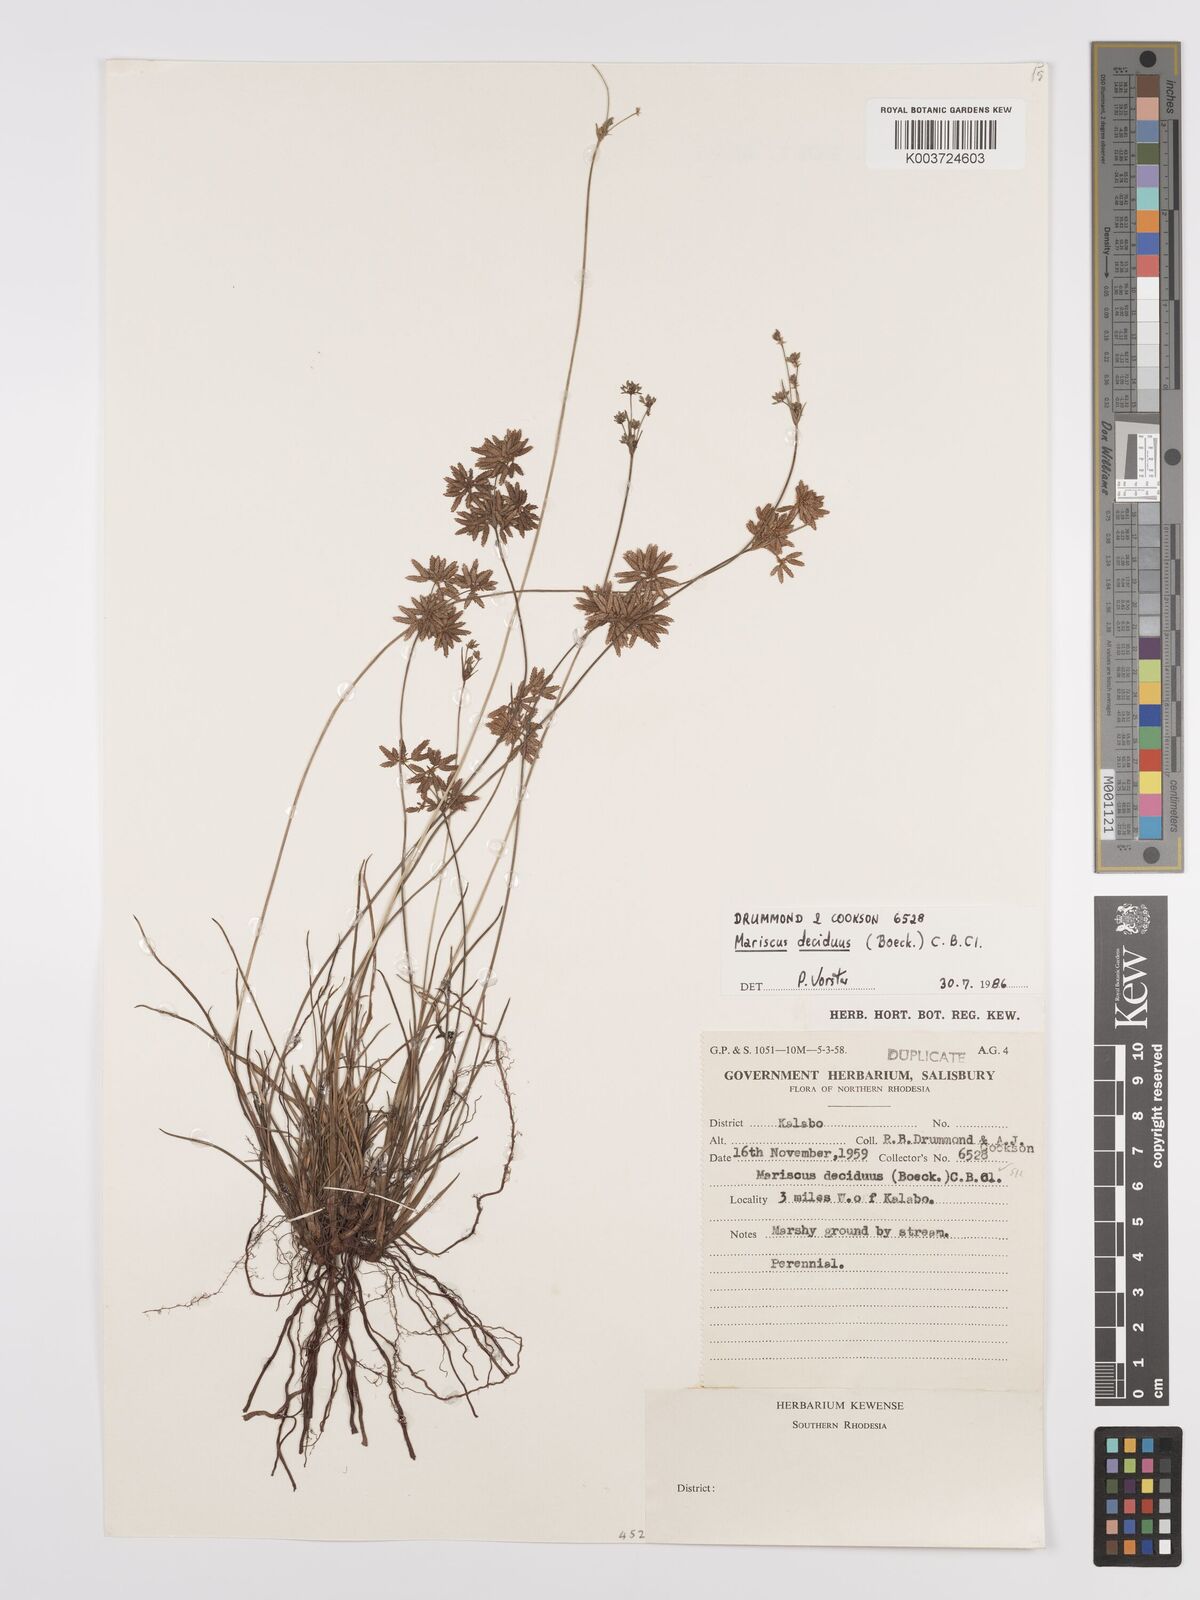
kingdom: Plantae
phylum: Tracheophyta
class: Liliopsida
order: Poales
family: Cyperaceae
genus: Cyperus
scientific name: Cyperus deciduus
